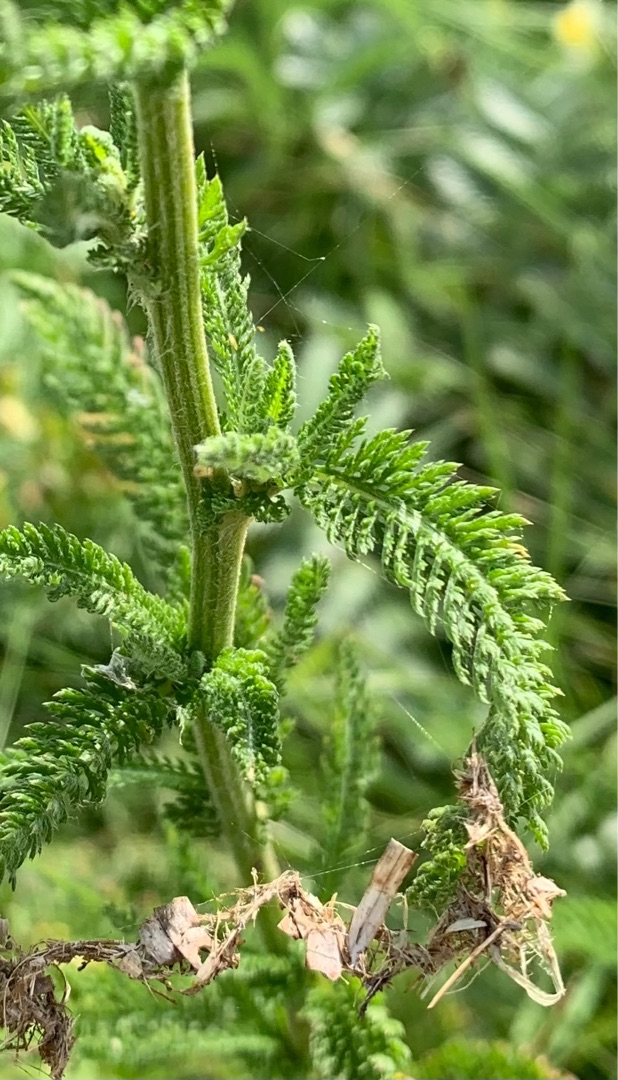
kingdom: Plantae
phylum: Tracheophyta
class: Magnoliopsida
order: Asterales
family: Asteraceae
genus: Achillea
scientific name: Achillea millefolium
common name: Almindelig røllike
